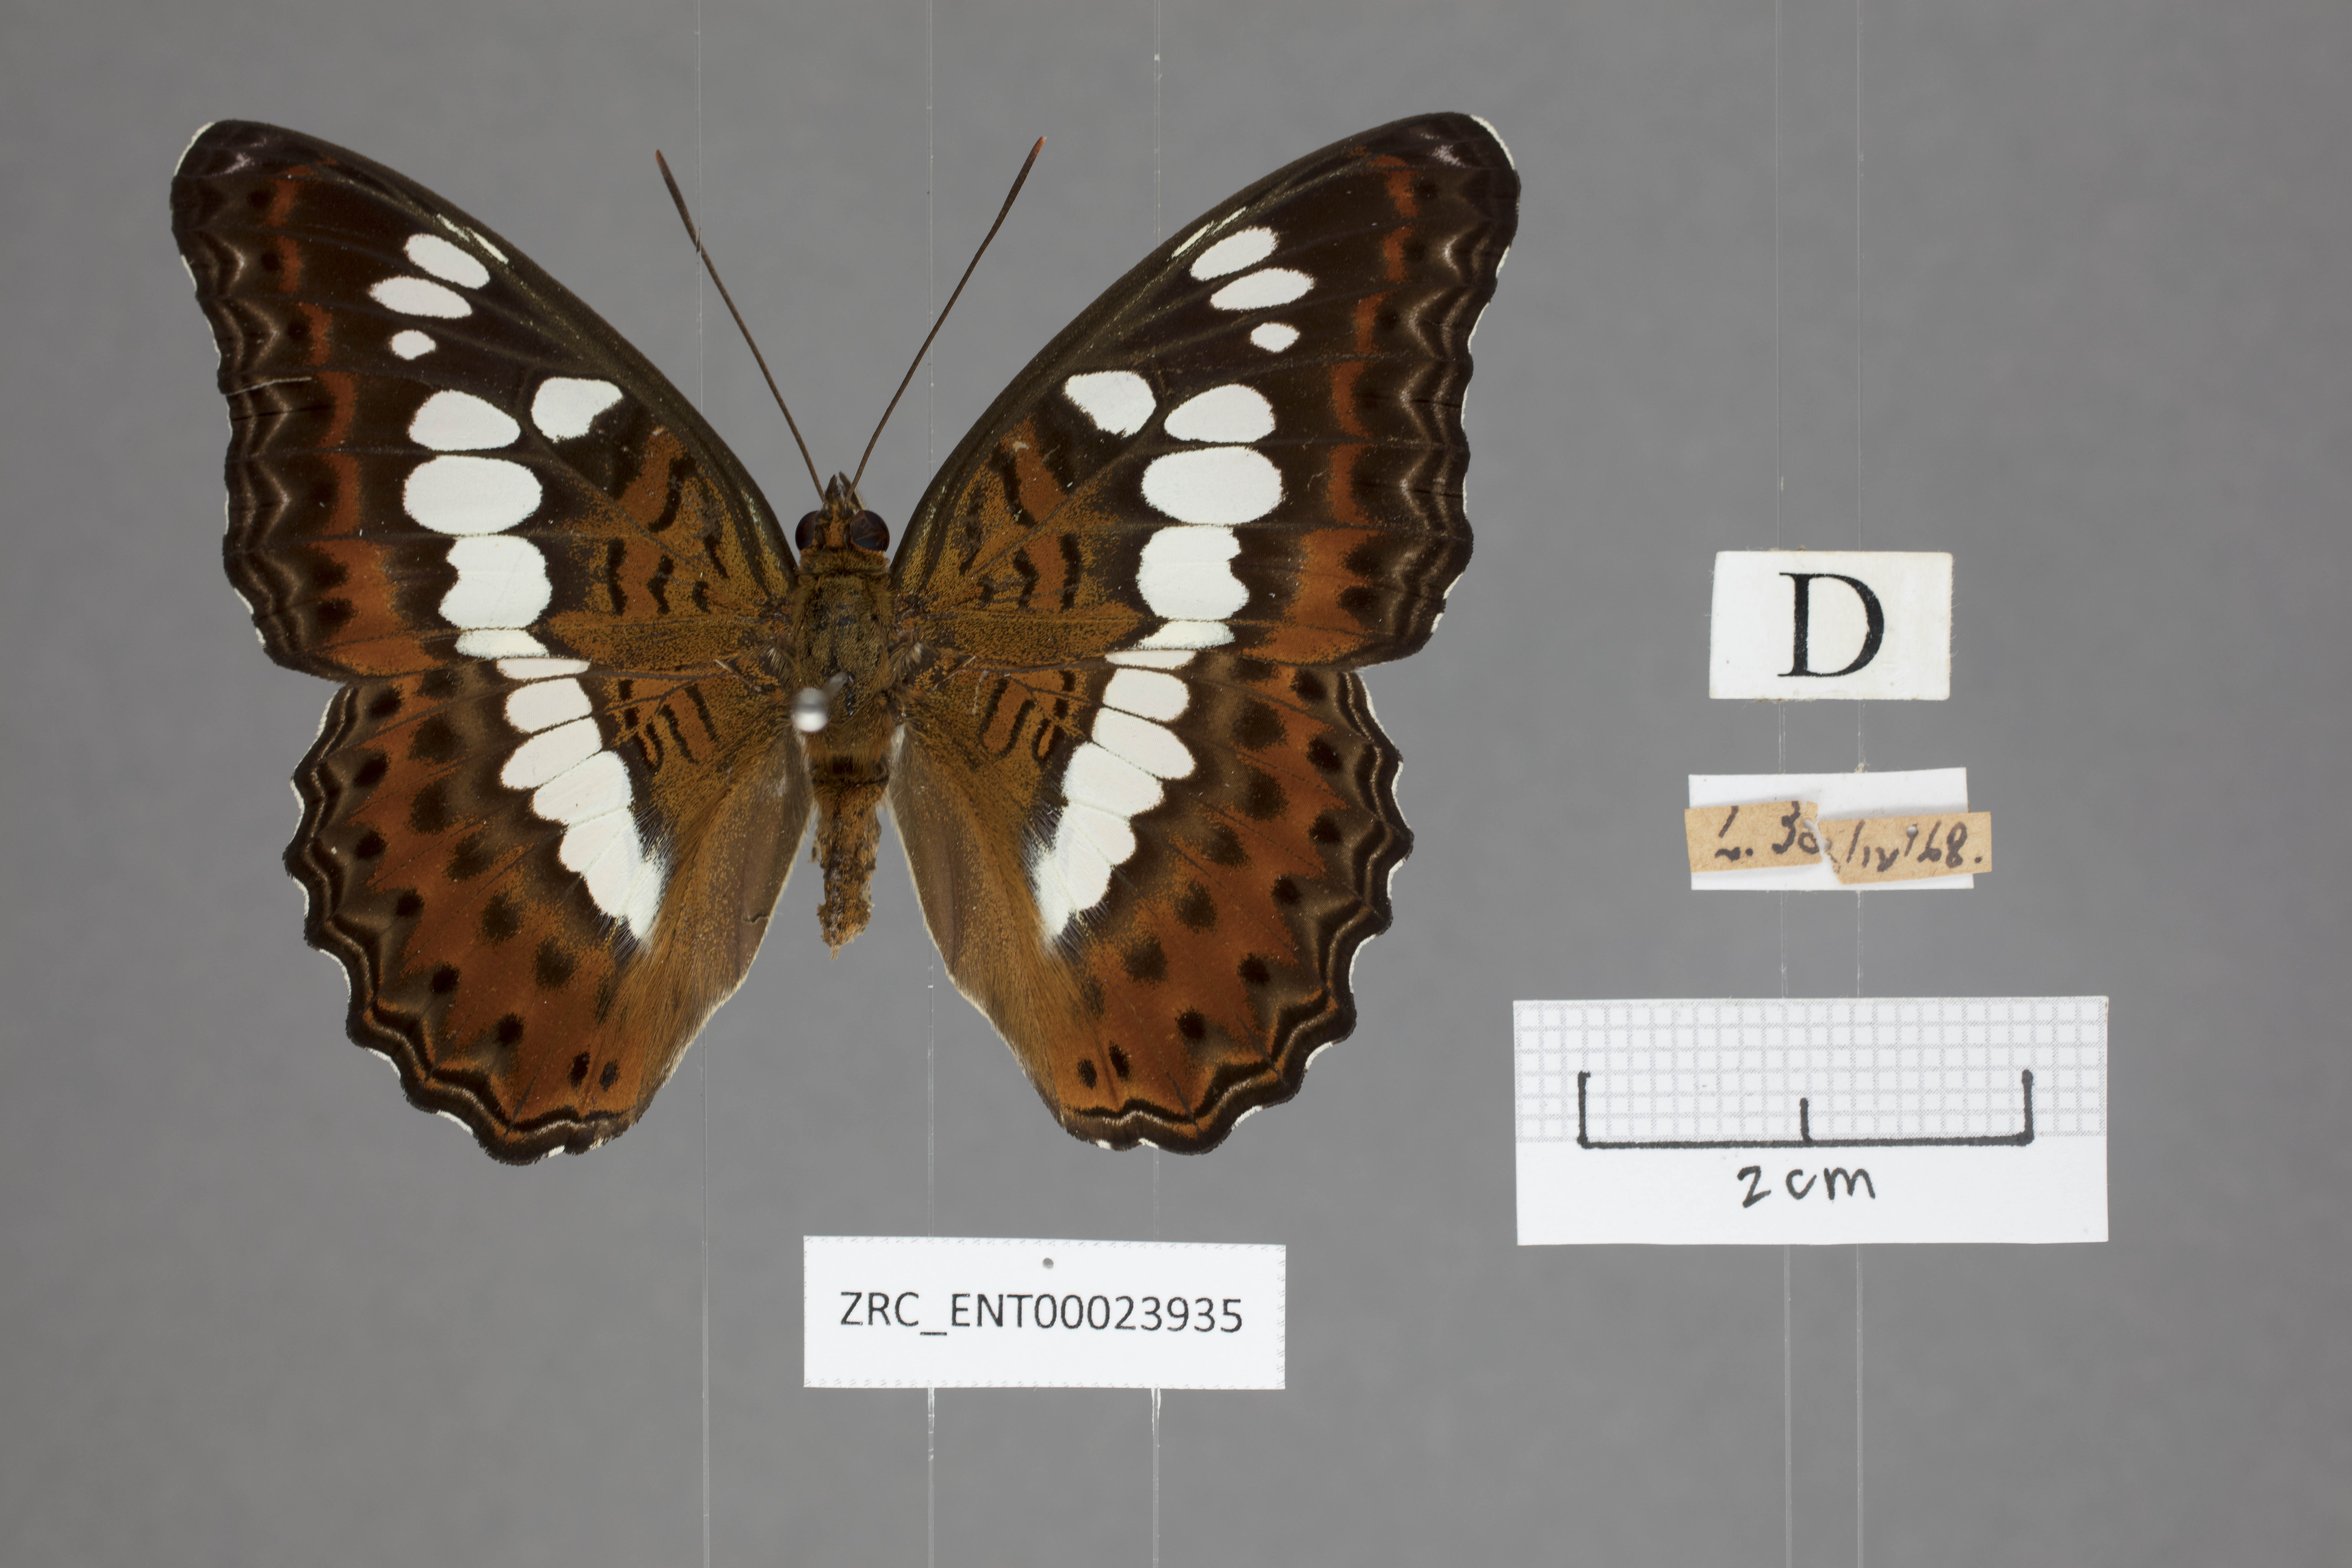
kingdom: Animalia
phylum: Arthropoda
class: Insecta
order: Lepidoptera
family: Nymphalidae
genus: Limenitis
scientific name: Limenitis Moduza procris
